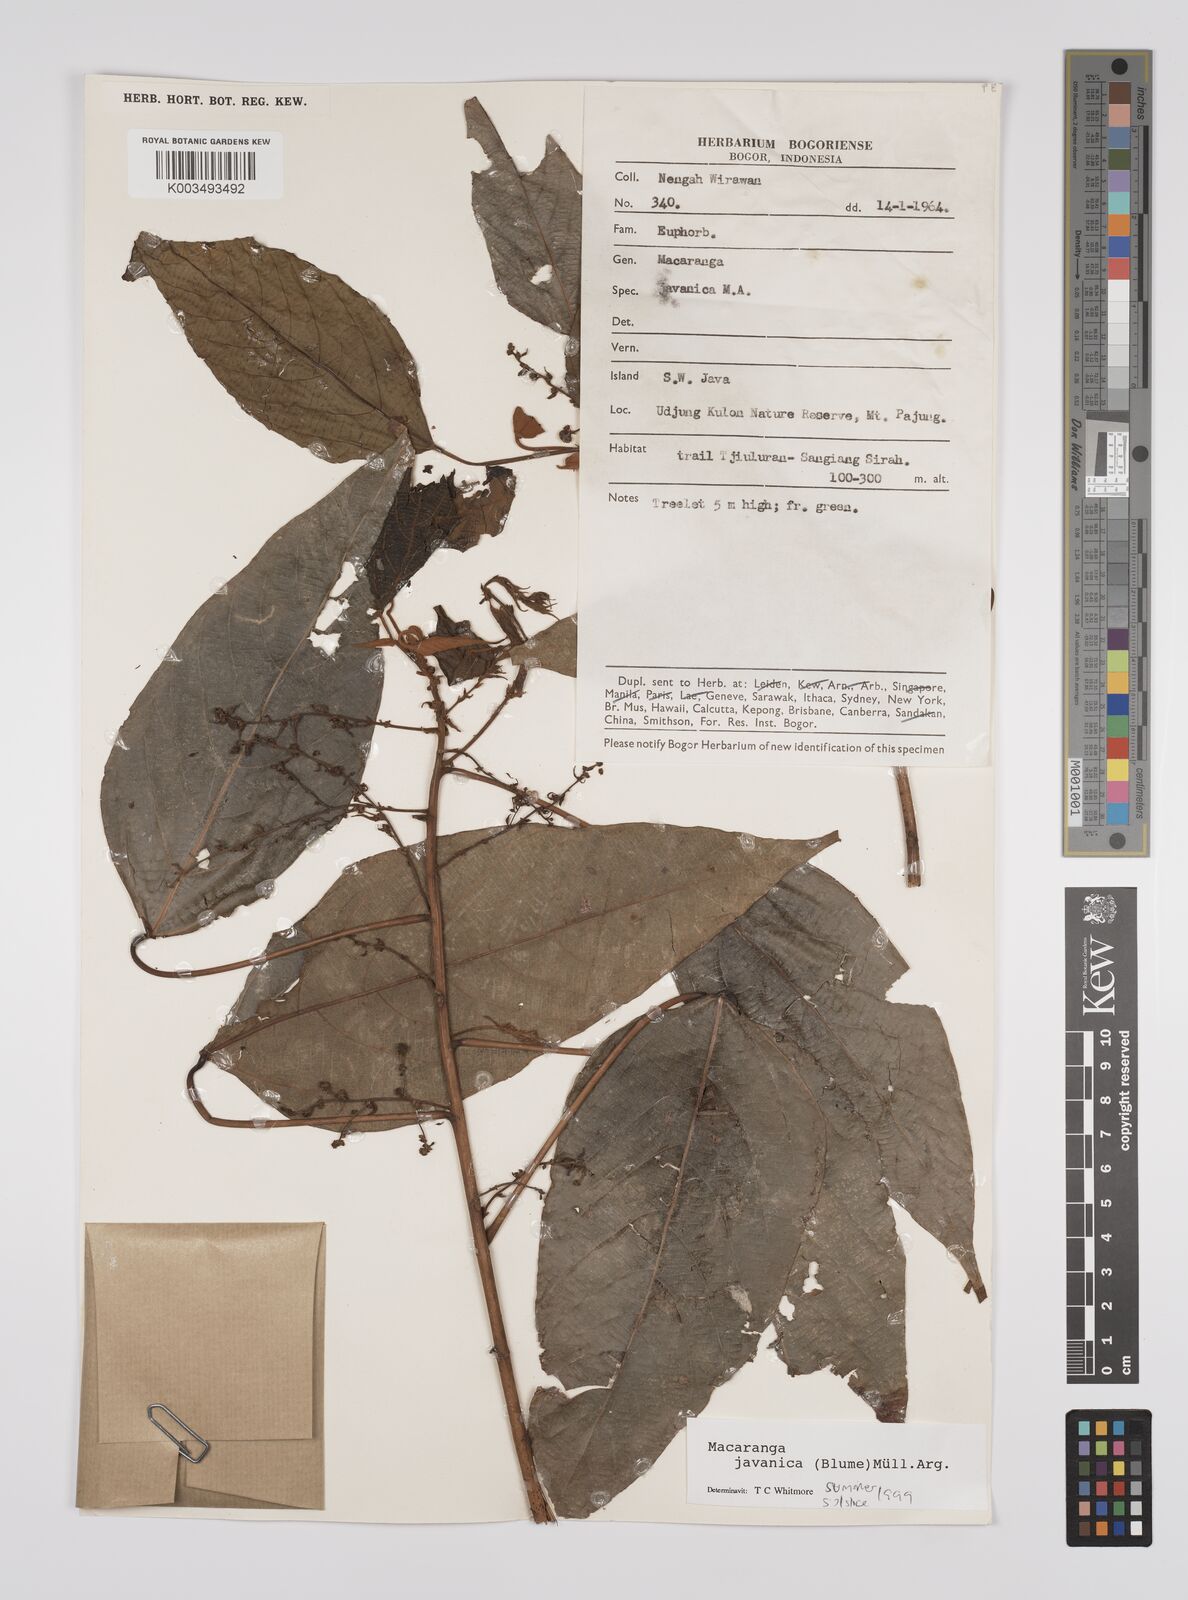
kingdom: Plantae
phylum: Tracheophyta
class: Magnoliopsida
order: Malpighiales
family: Euphorbiaceae
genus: Macaranga
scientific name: Macaranga javanica
